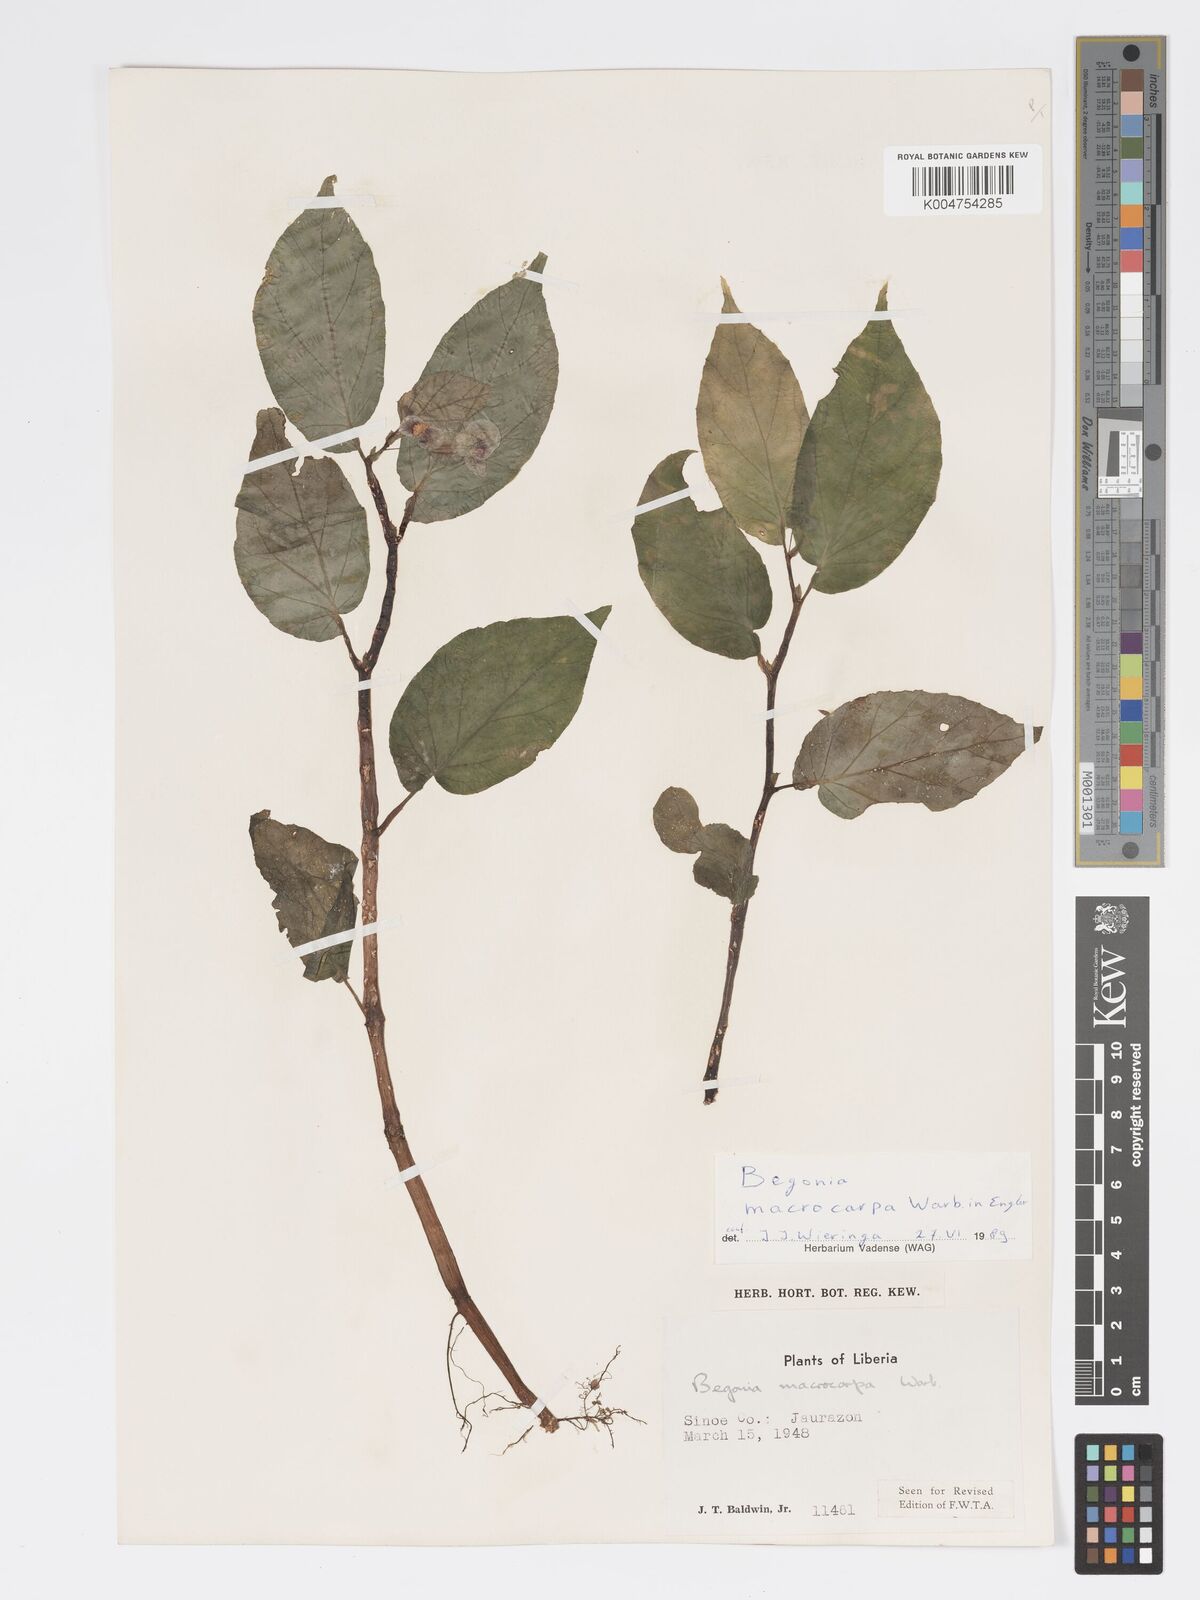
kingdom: Plantae
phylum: Tracheophyta
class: Magnoliopsida
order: Cucurbitales
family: Begoniaceae
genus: Begonia
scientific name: Begonia macrocarpa
